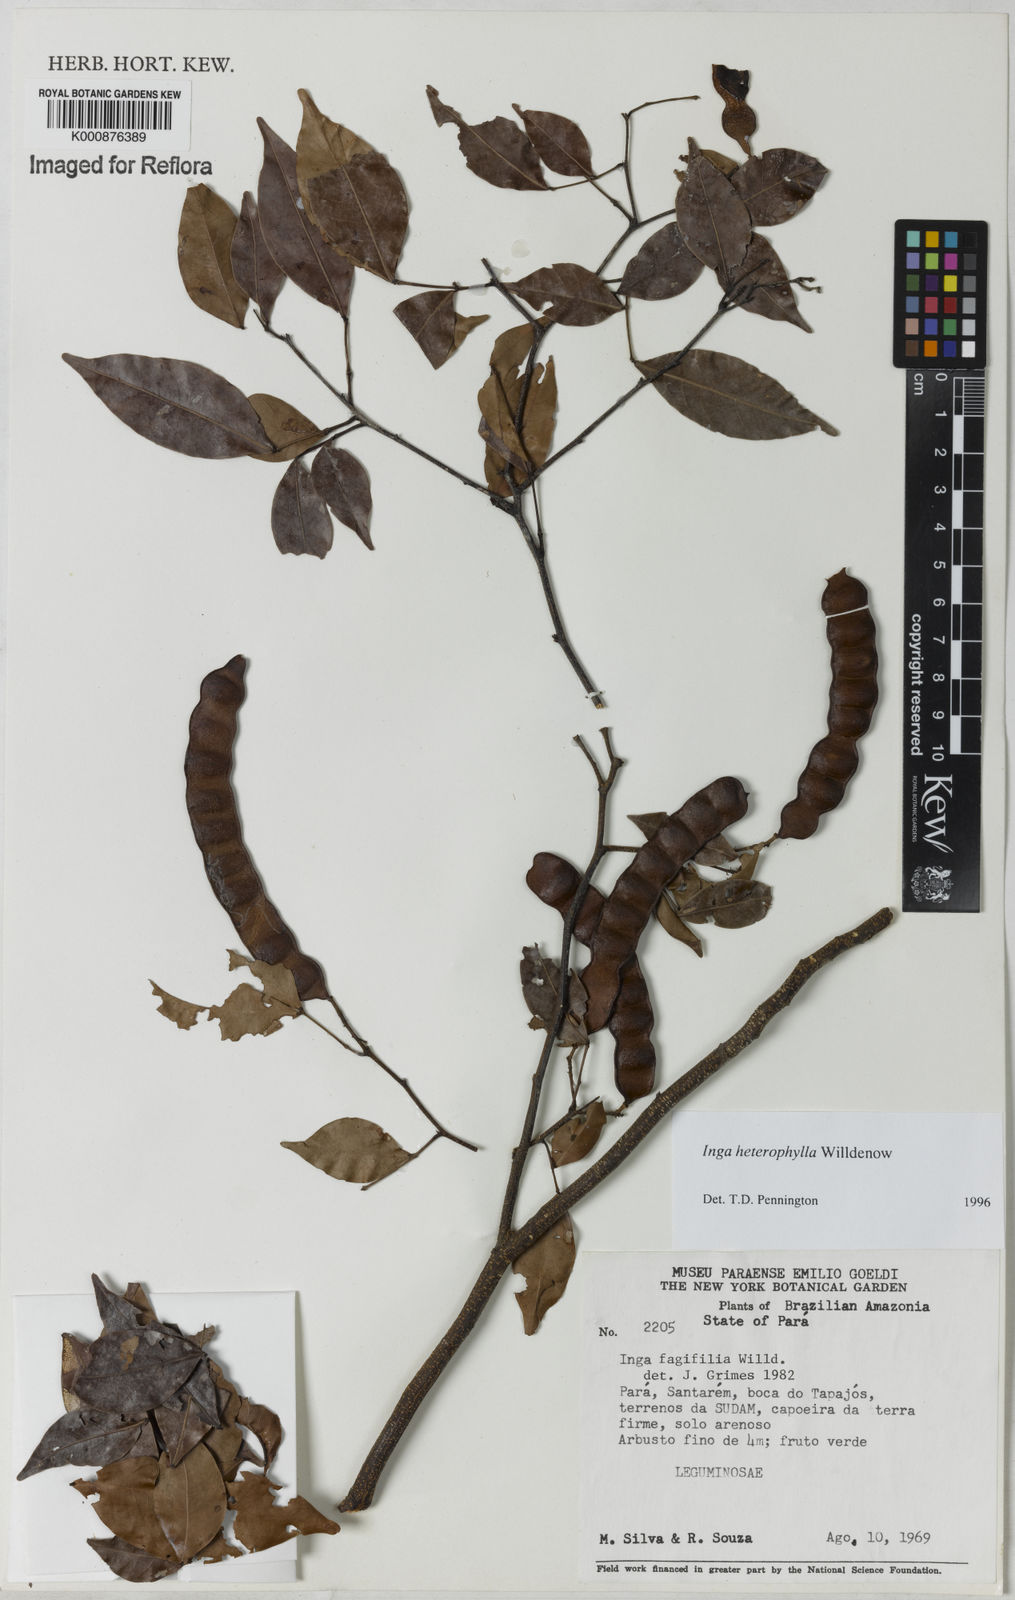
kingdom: Plantae
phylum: Tracheophyta
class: Magnoliopsida
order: Fabales
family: Fabaceae
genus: Inga
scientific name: Inga heterophylla
